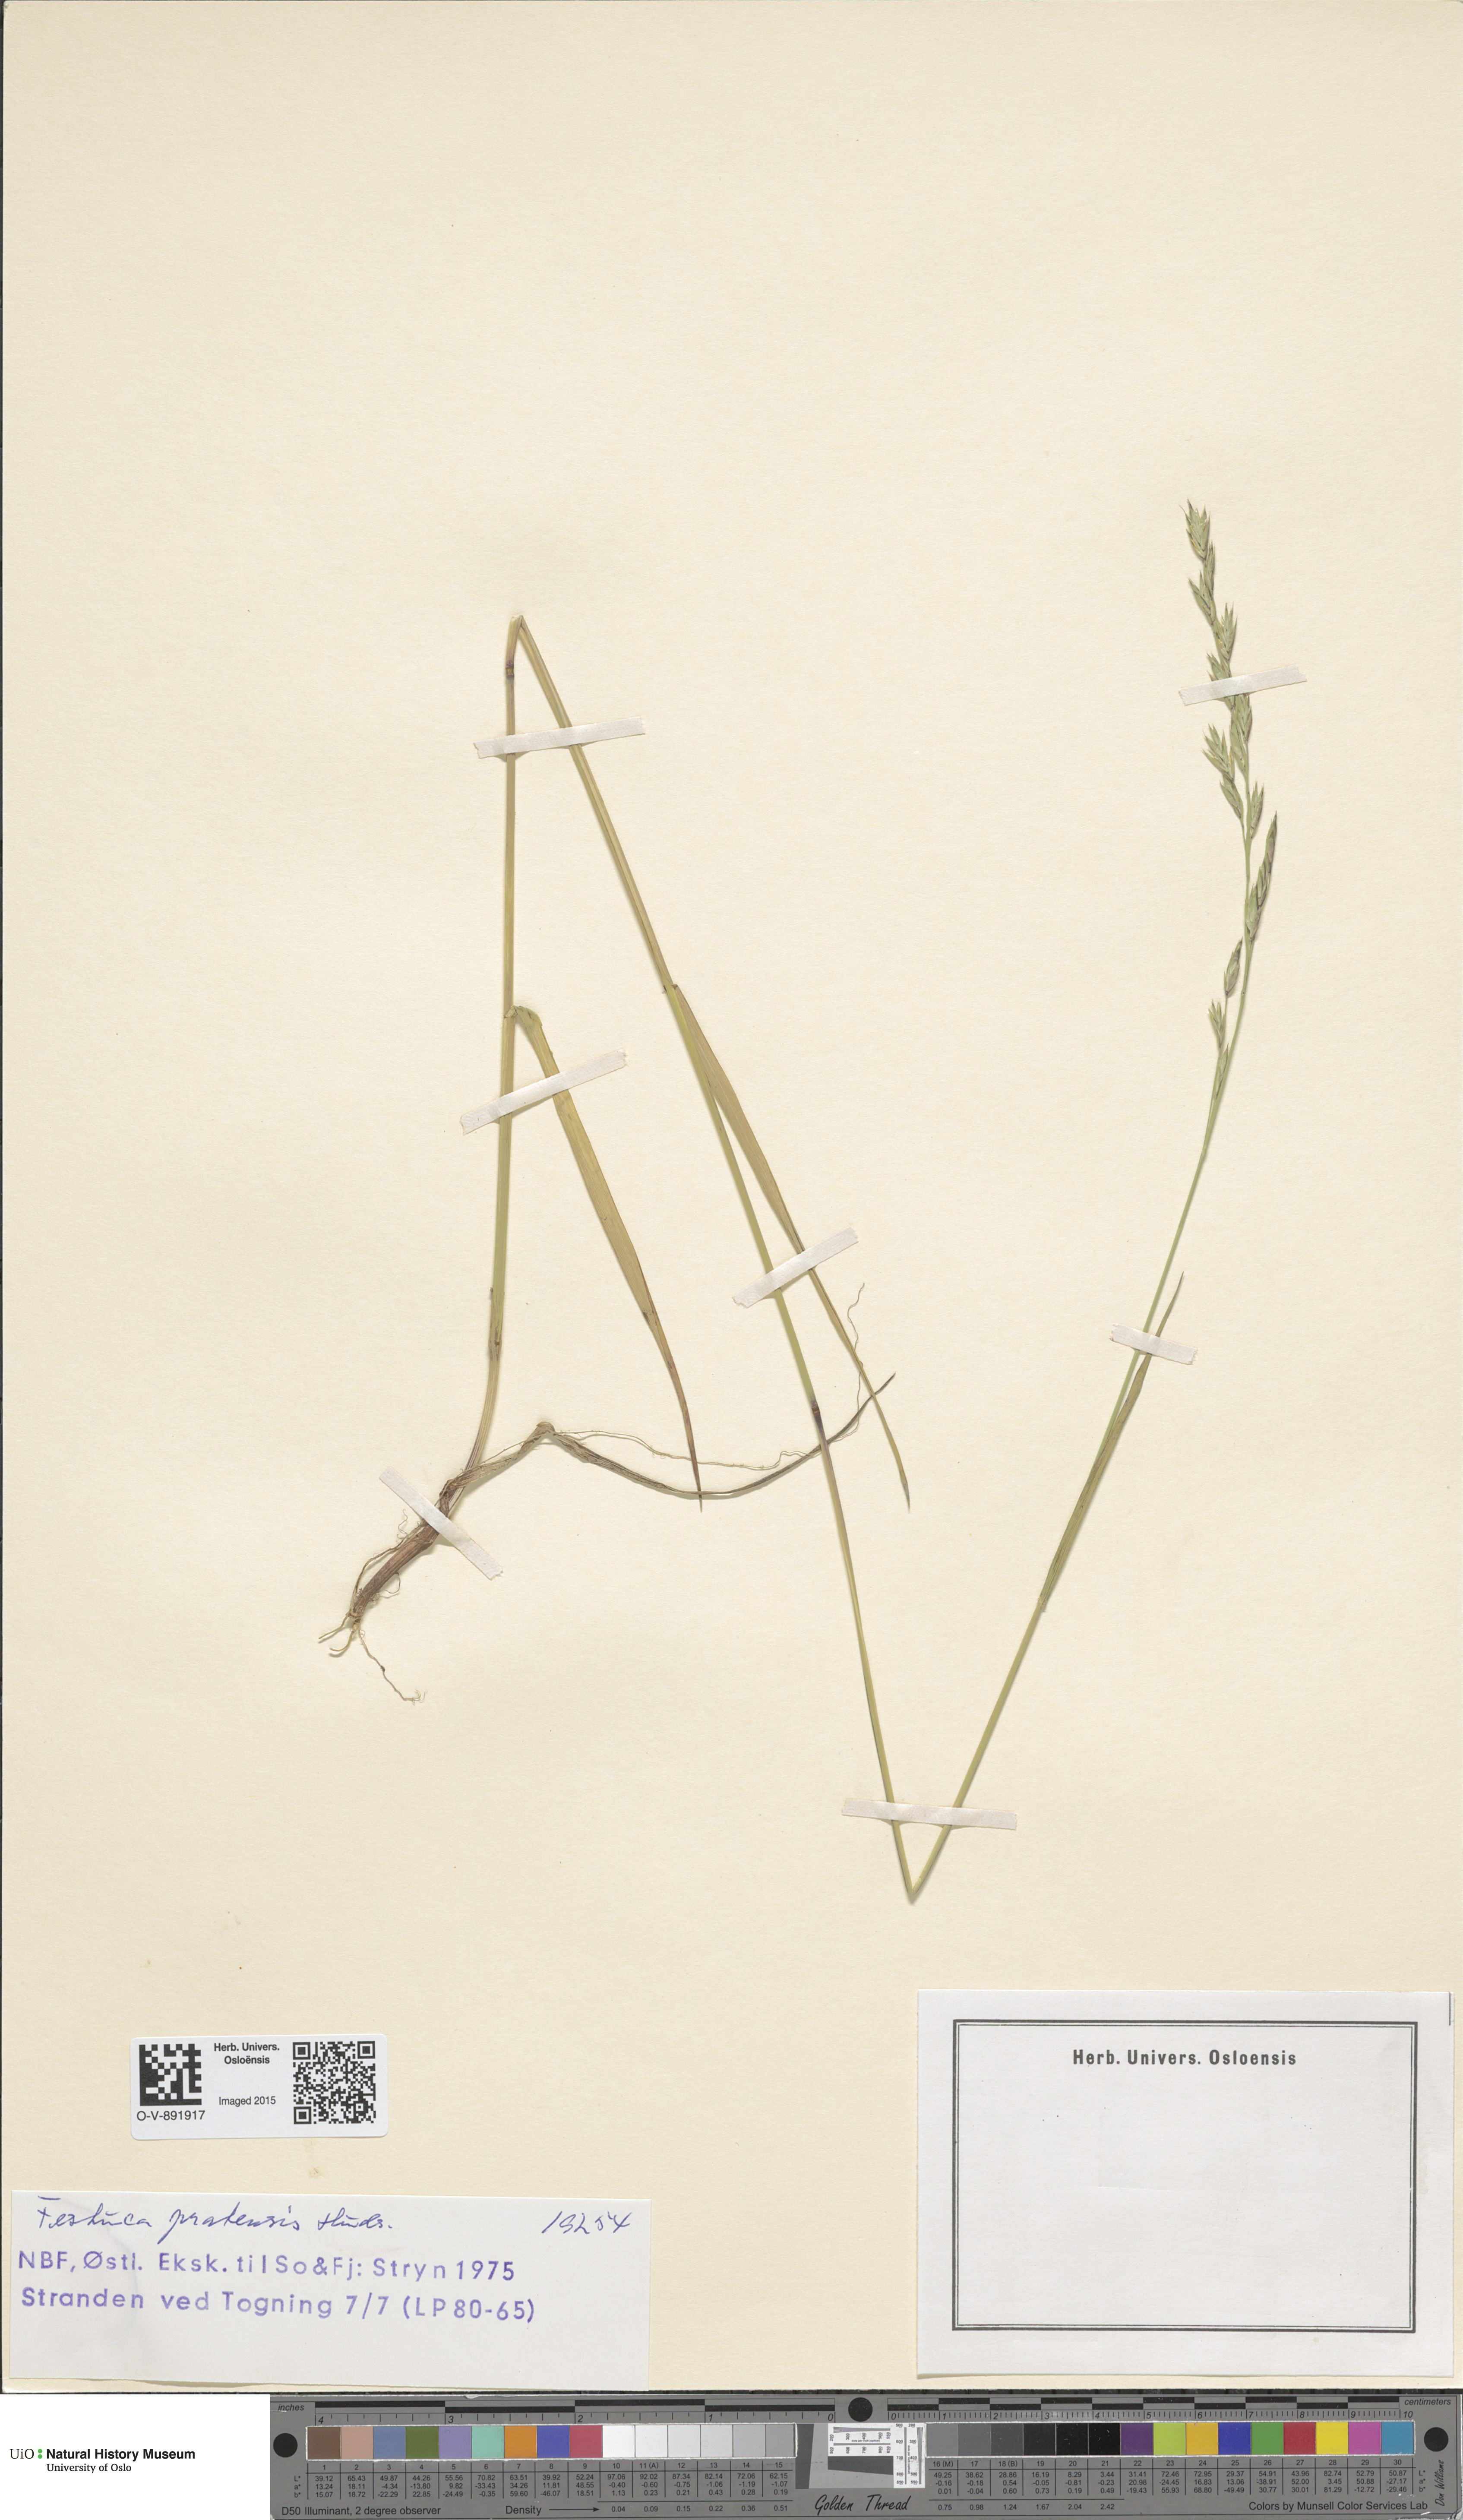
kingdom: Plantae
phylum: Tracheophyta
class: Liliopsida
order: Poales
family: Poaceae
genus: Lolium
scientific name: Lolium pratense
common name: Dover grass
